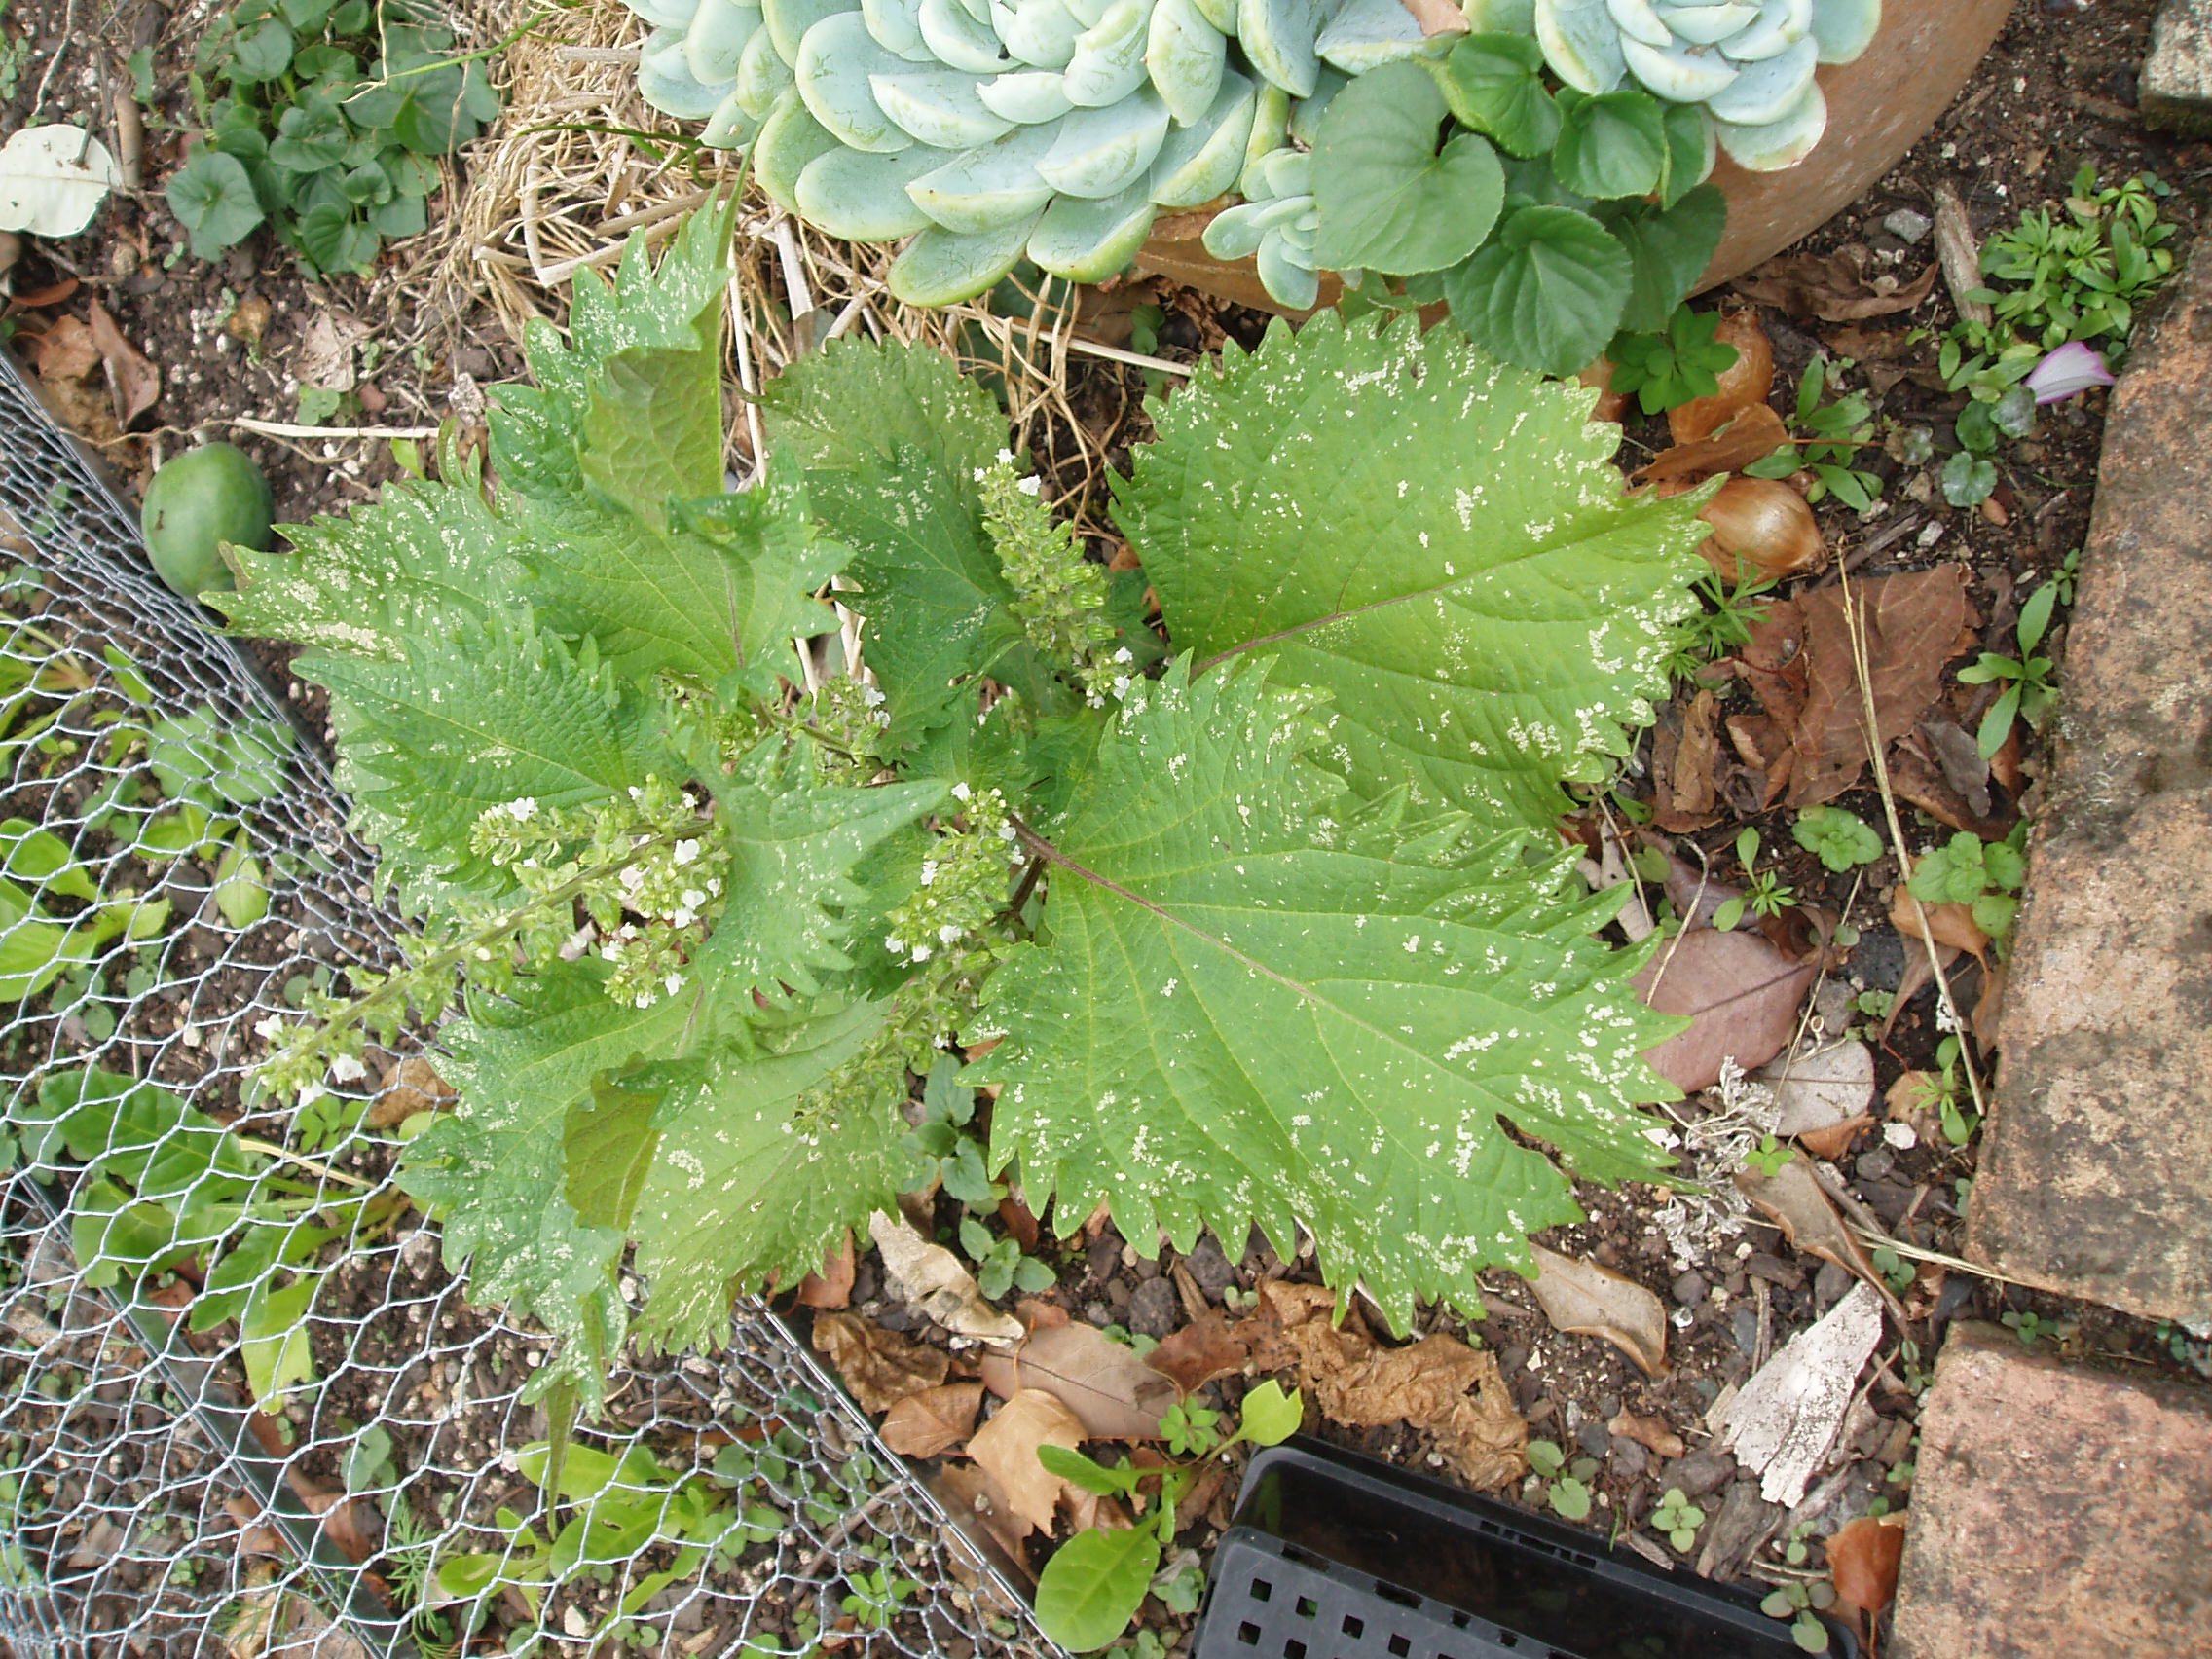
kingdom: Plantae
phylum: Tracheophyta
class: Magnoliopsida
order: Lamiales
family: Lamiaceae
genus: Perilla
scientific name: Perilla frutescens
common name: Perilla
